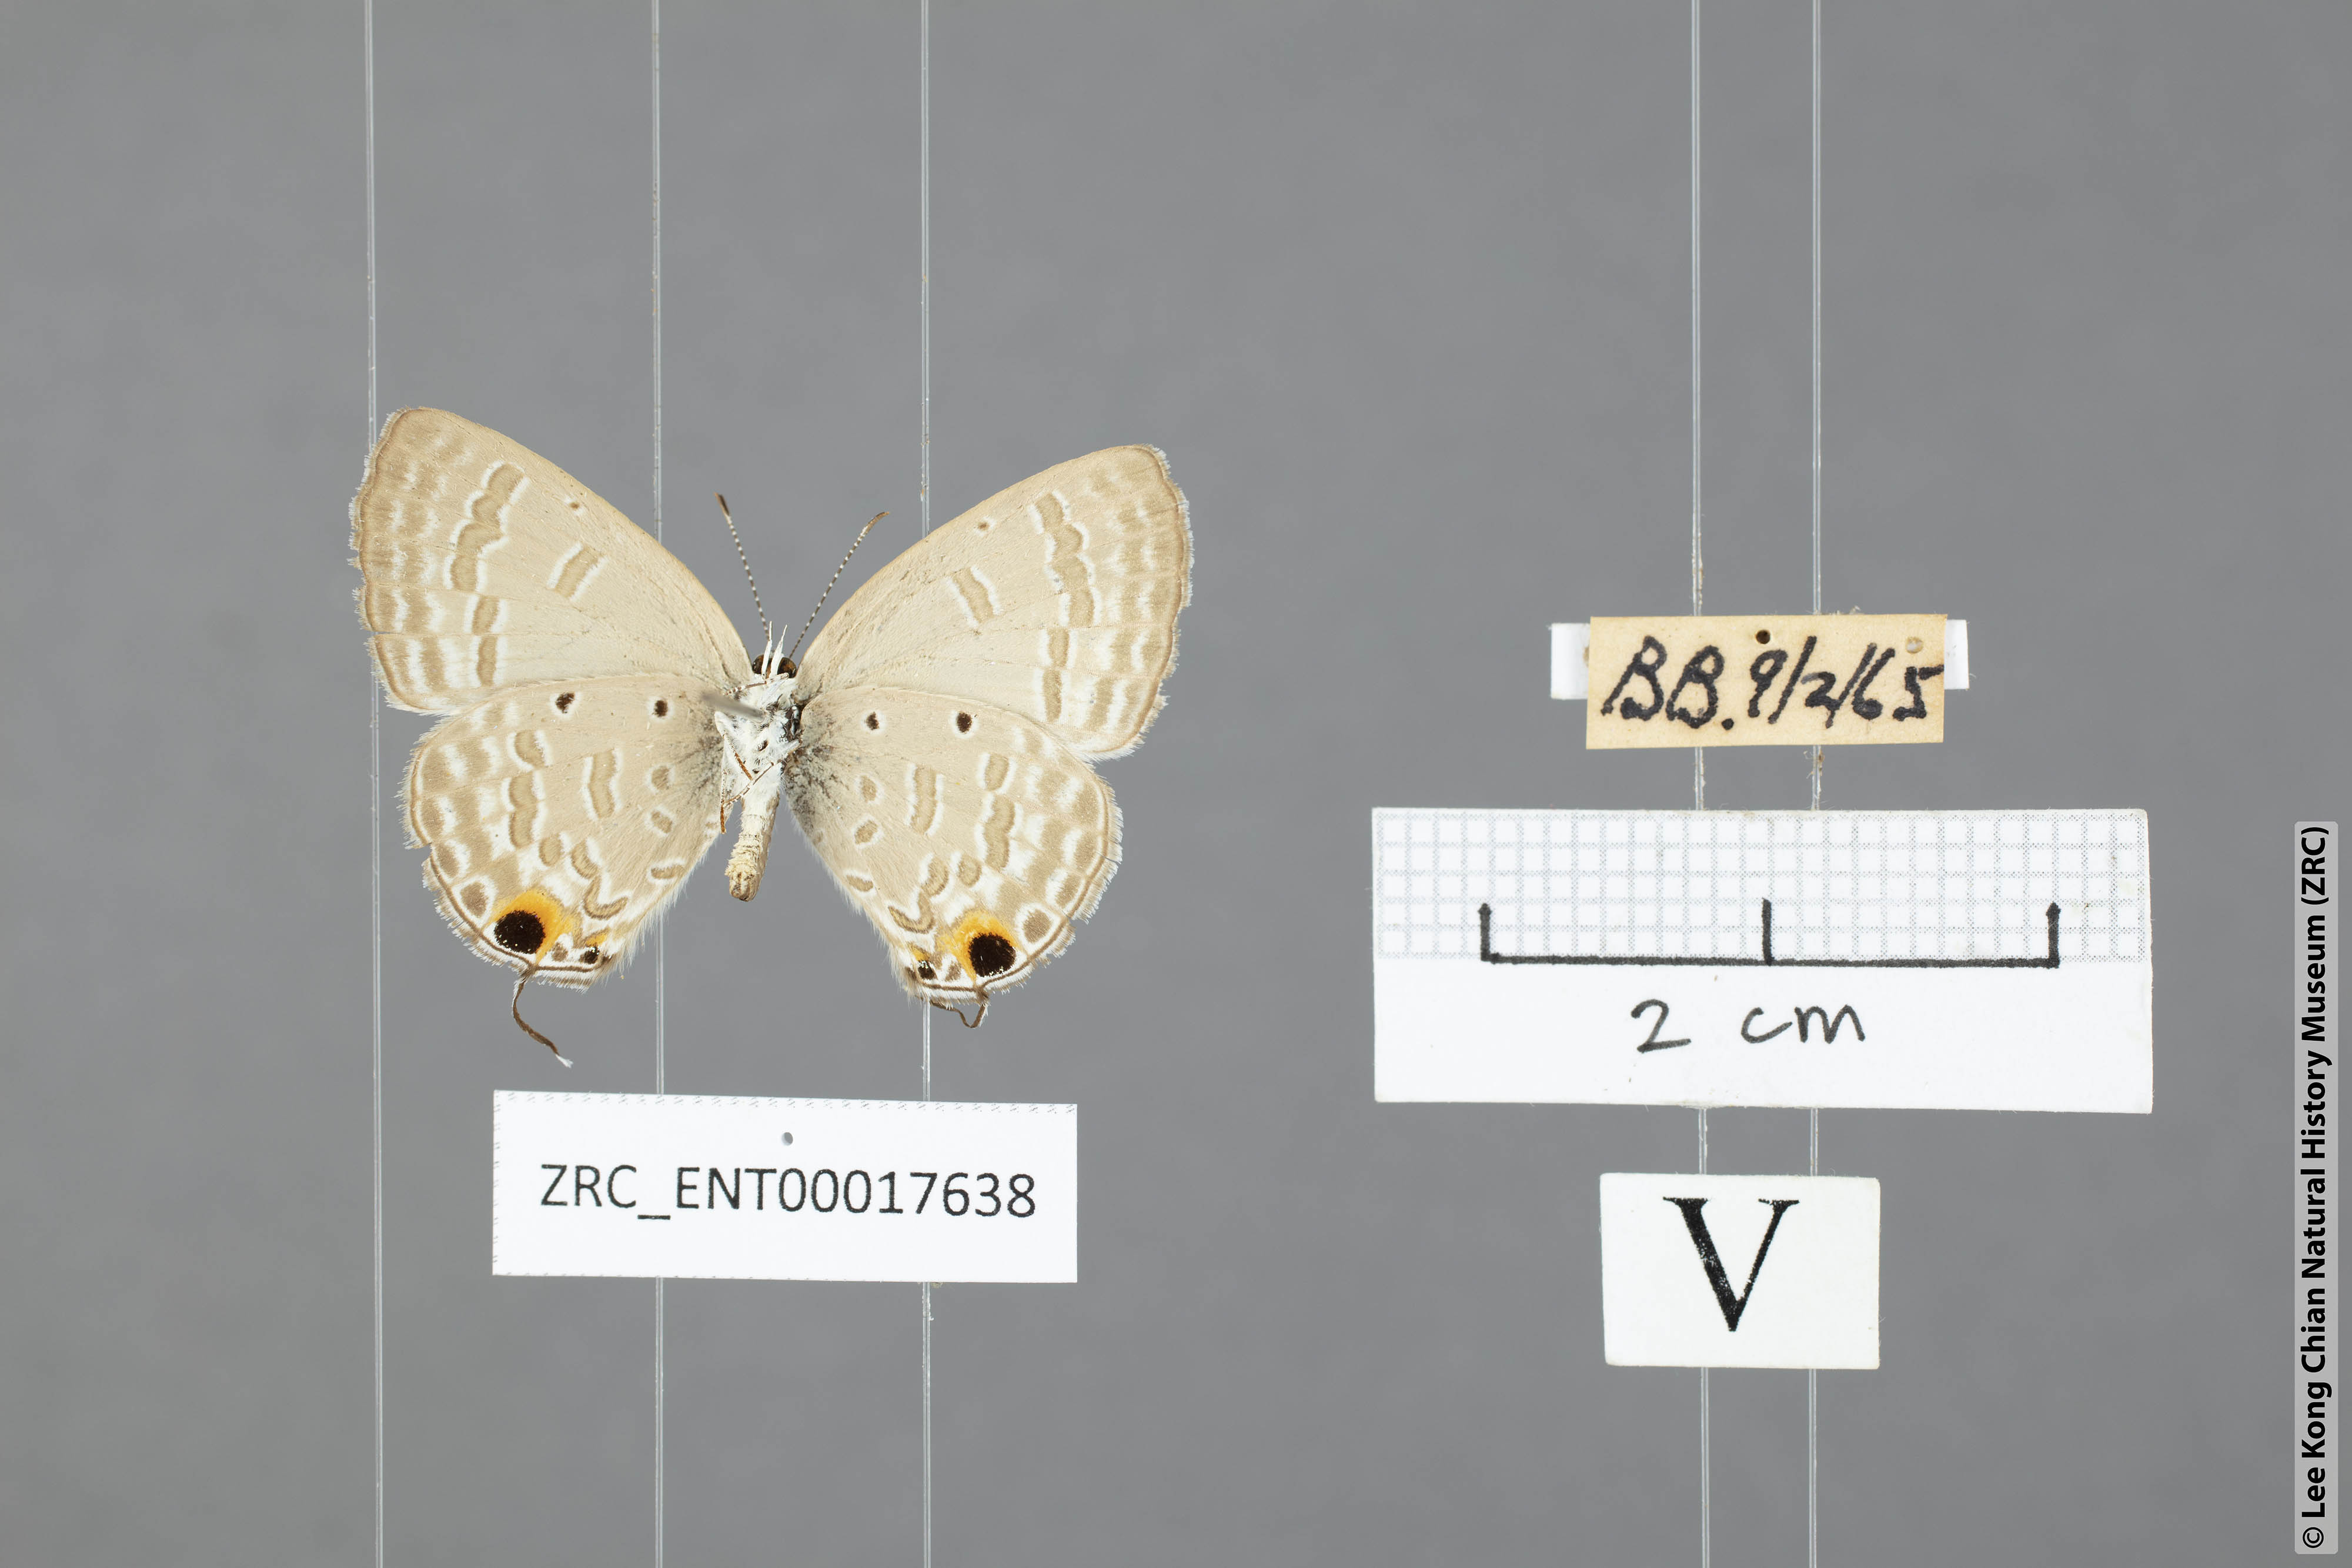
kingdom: Animalia
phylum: Arthropoda
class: Insecta
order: Lepidoptera
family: Lycaenidae
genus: Catochrysops
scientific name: Catochrysops strabo
